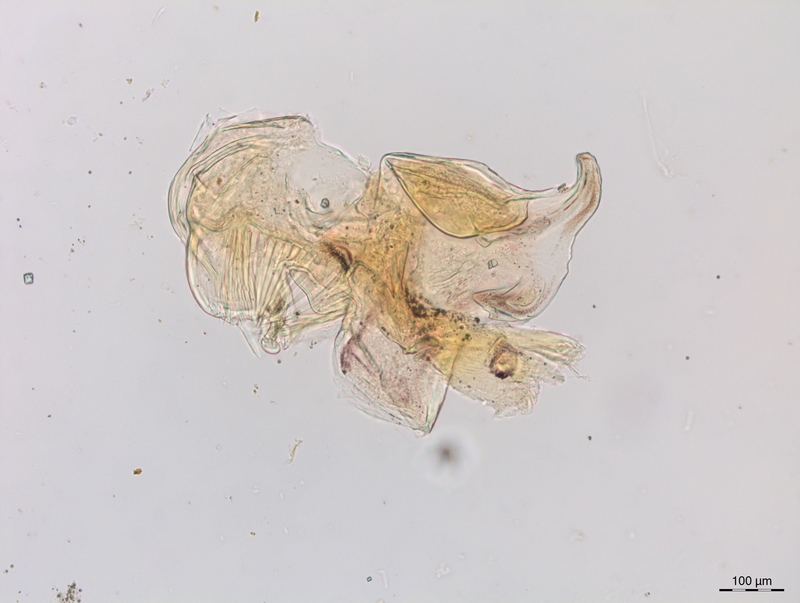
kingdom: Animalia
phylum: Arthropoda
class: Diplopoda
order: Chordeumatida
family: Craspedosomatidae
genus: Craspedosoma
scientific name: Craspedosoma alemannicum
